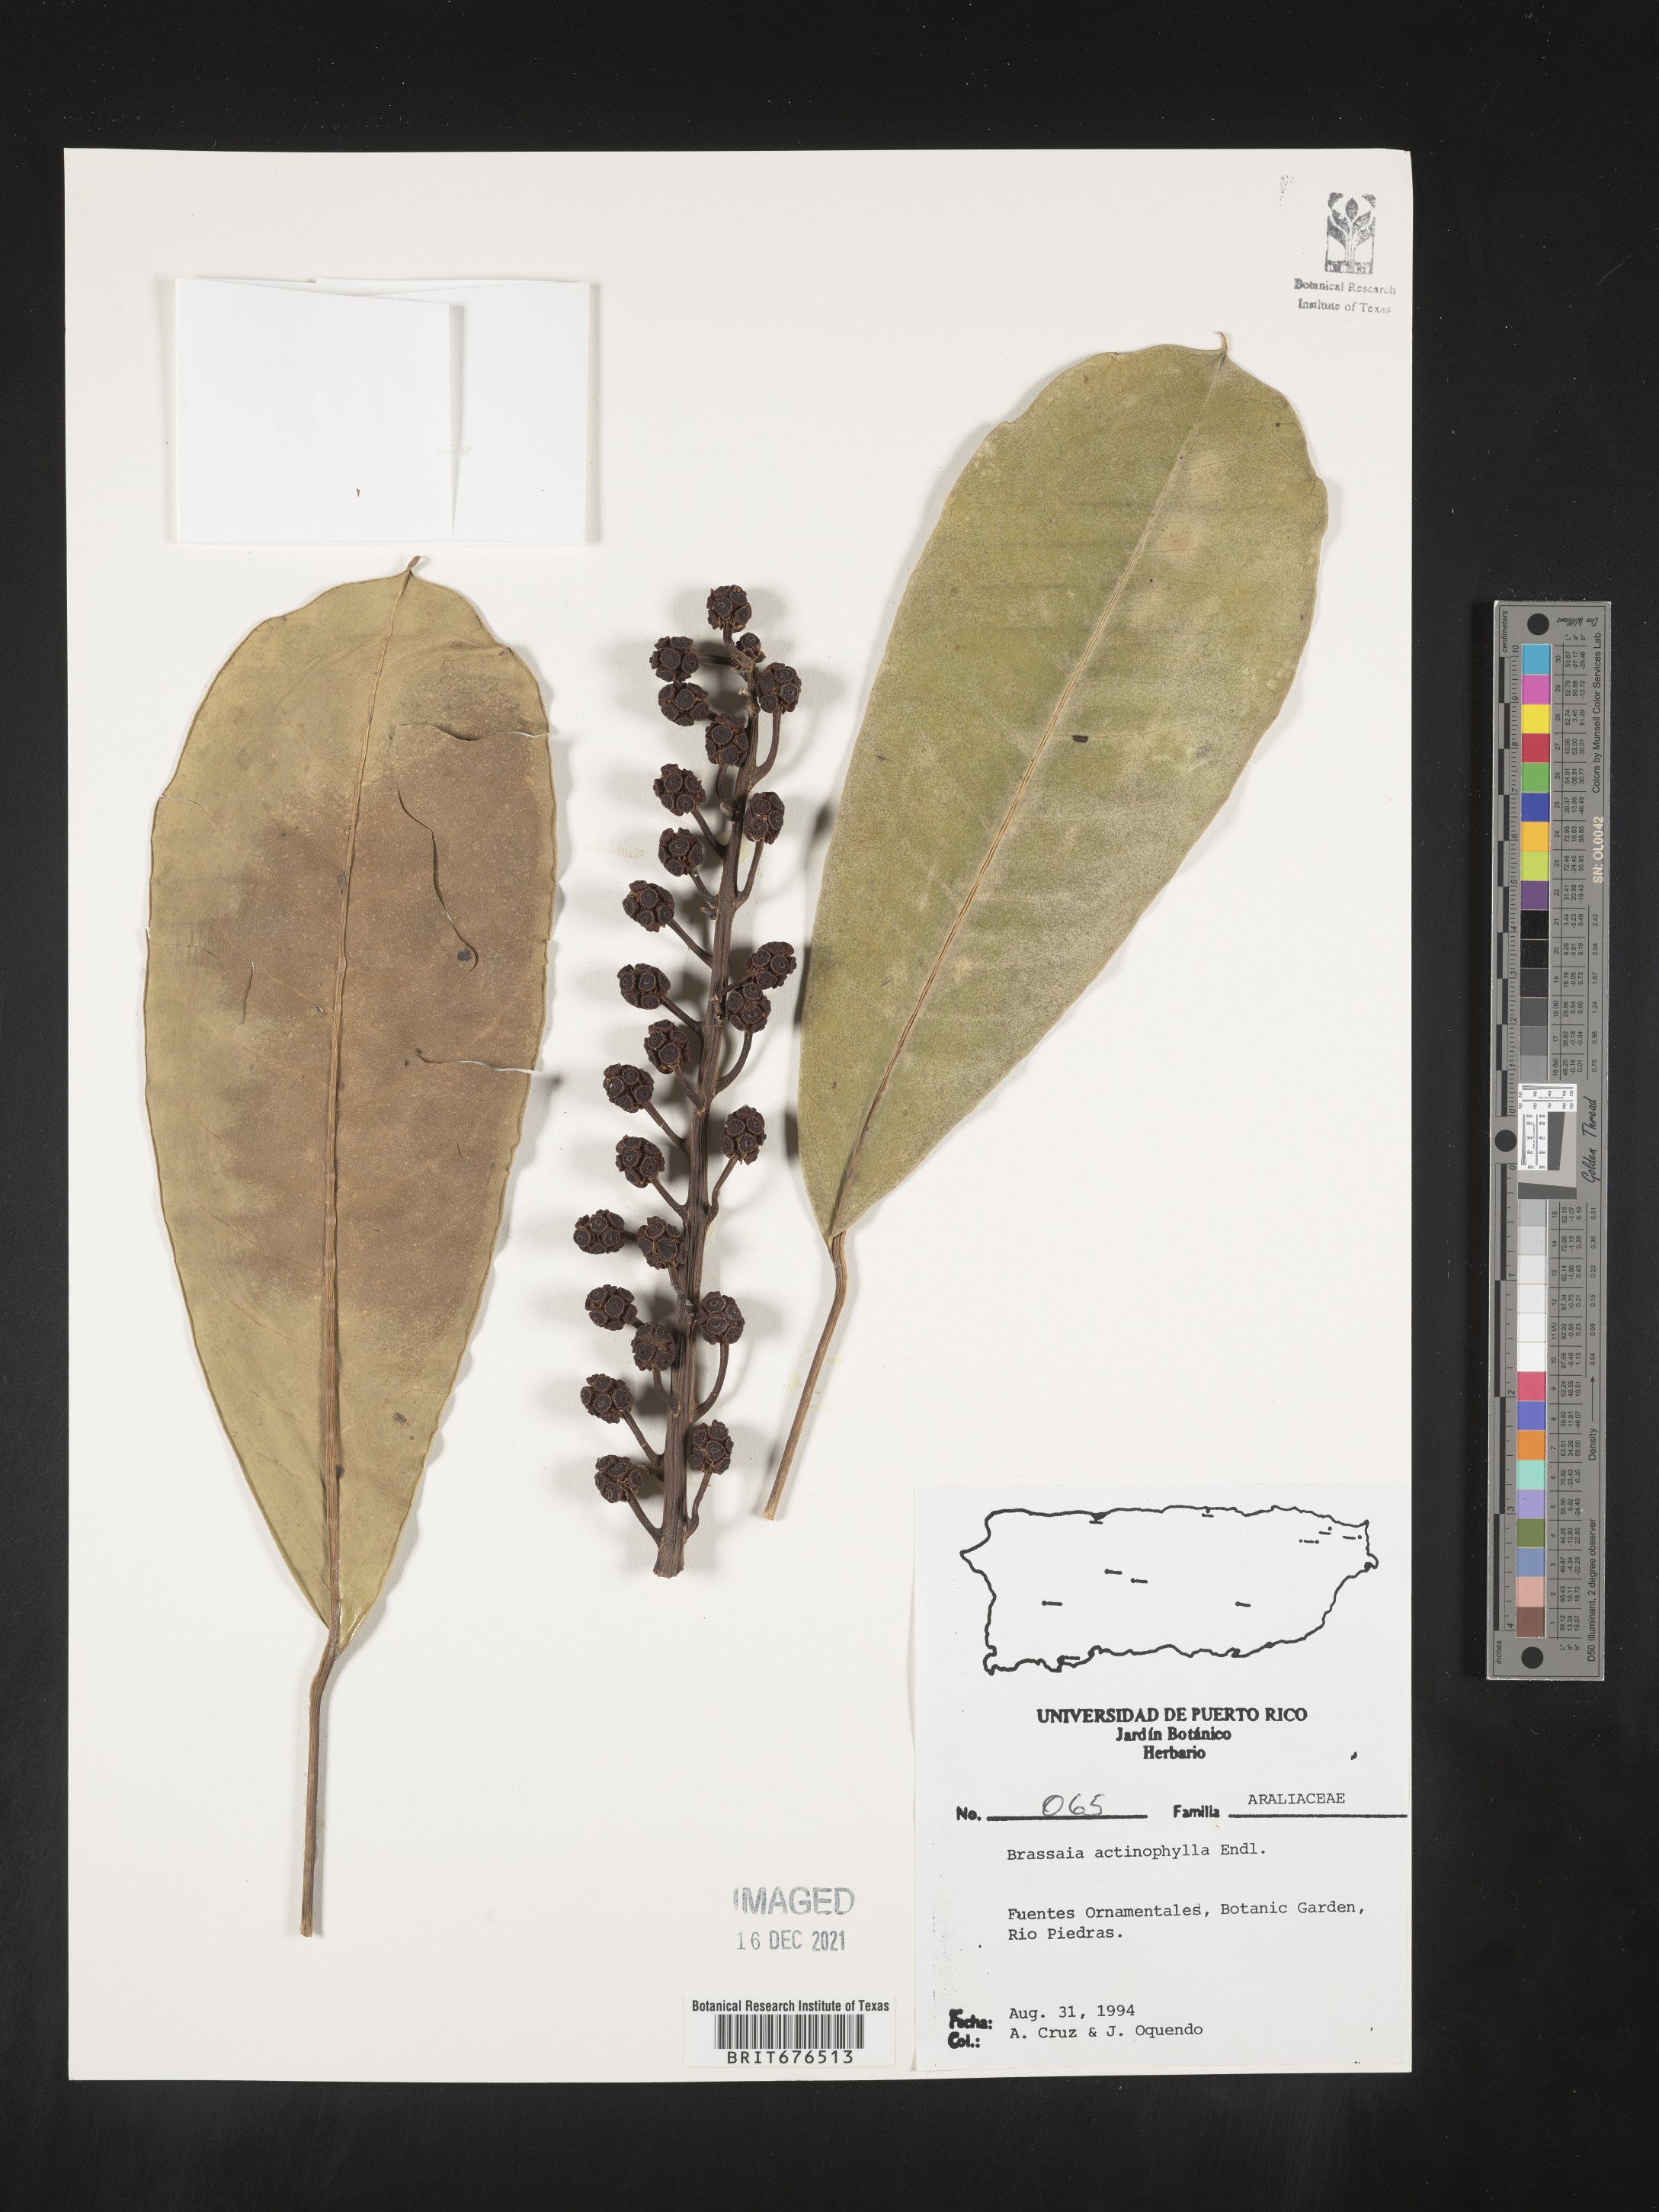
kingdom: Plantae
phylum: Tracheophyta
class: Magnoliopsida
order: Apiales
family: Araliaceae
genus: Heptapleurum
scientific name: Heptapleurum actinophyllum
